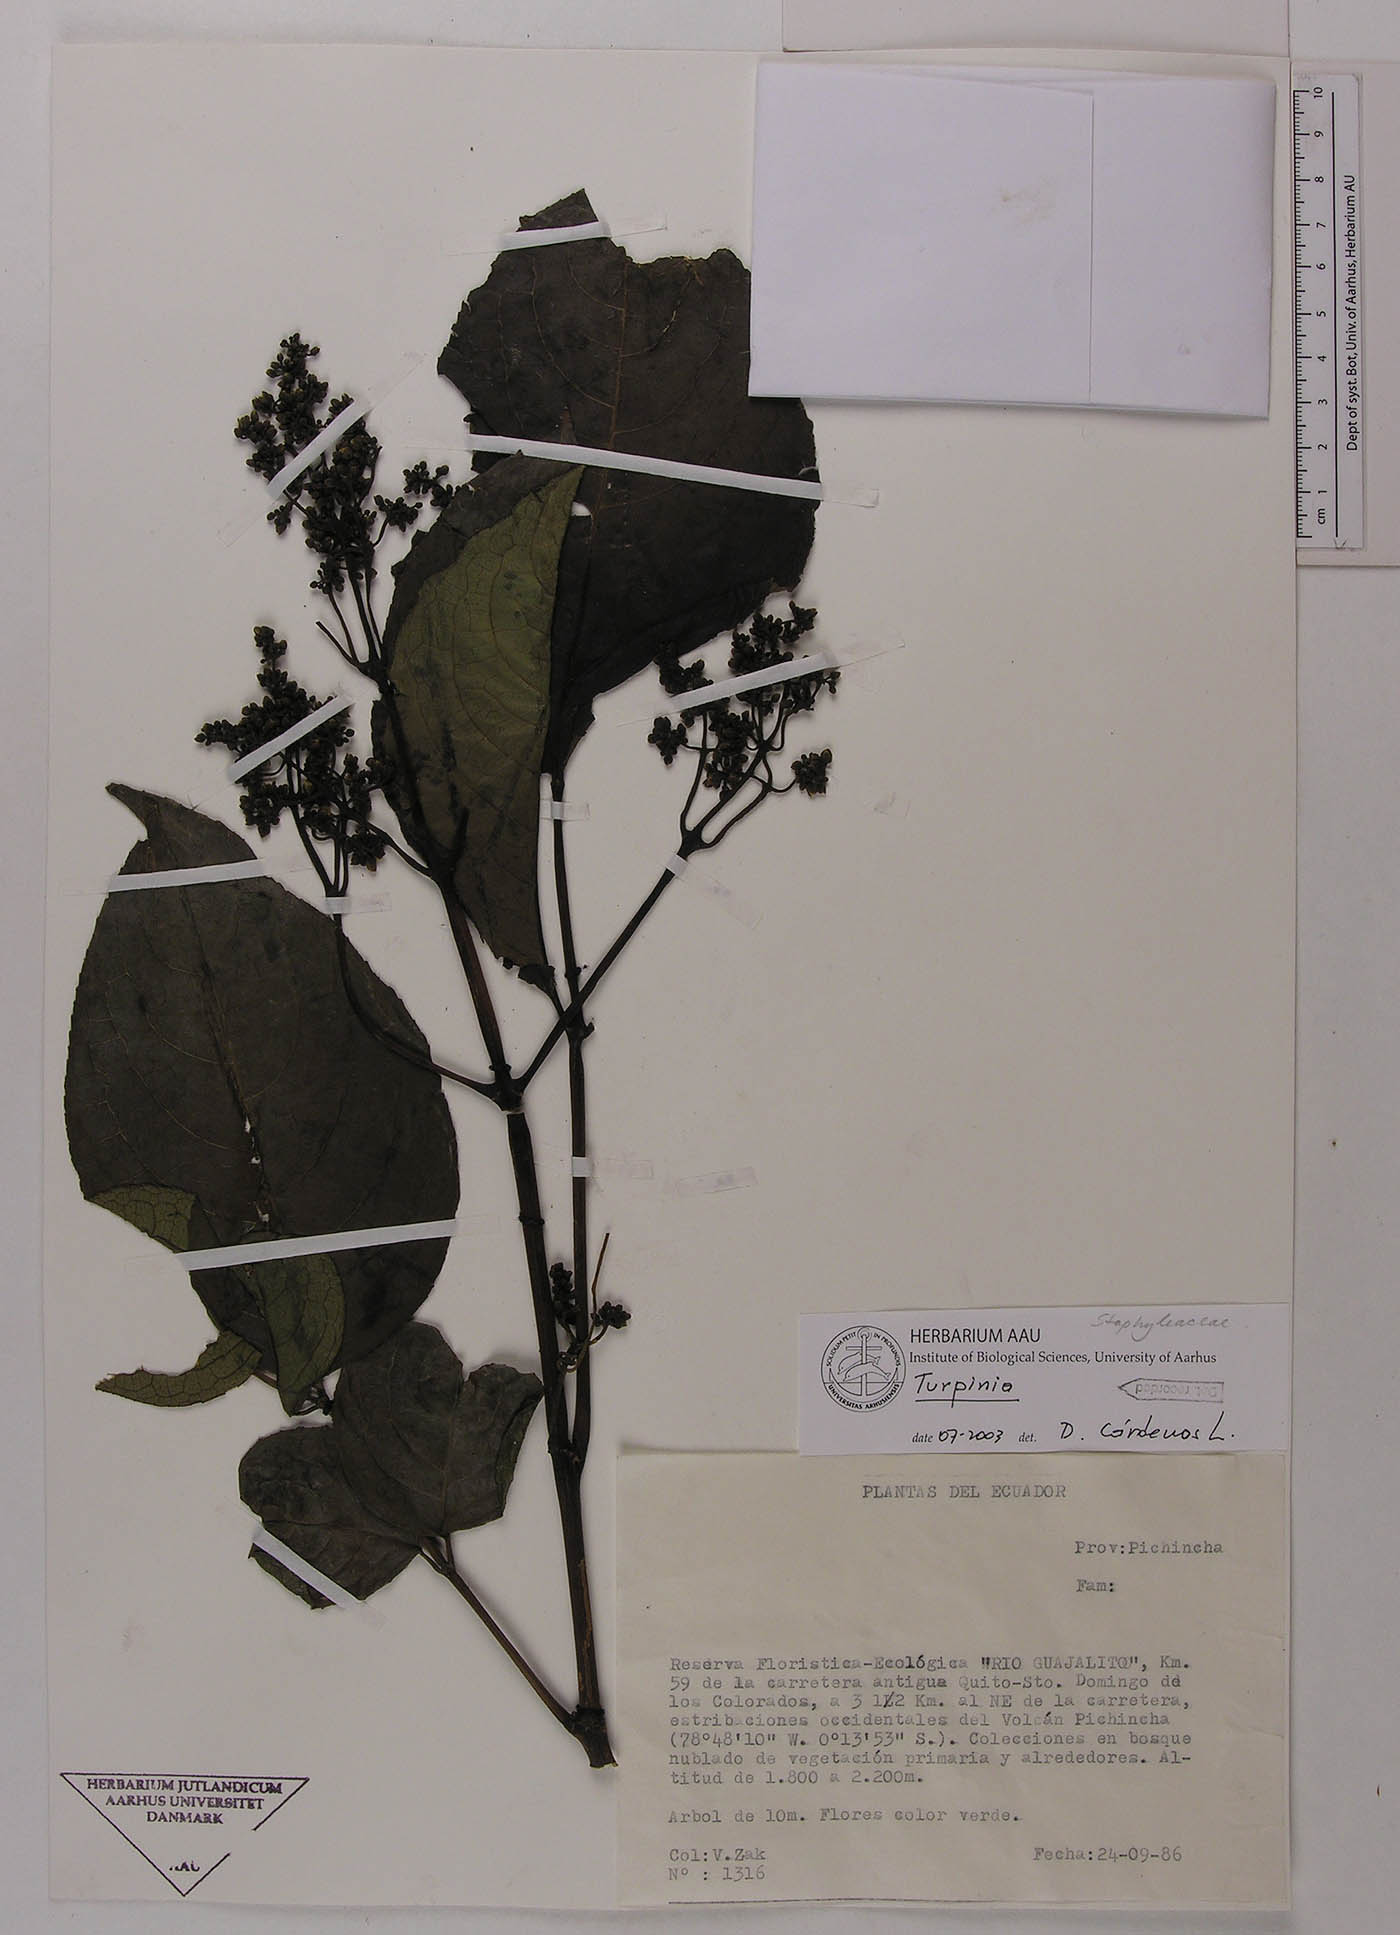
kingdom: Plantae
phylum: Tracheophyta
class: Magnoliopsida
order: Crossosomatales
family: Staphyleaceae
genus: Turpinia
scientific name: Turpinia
